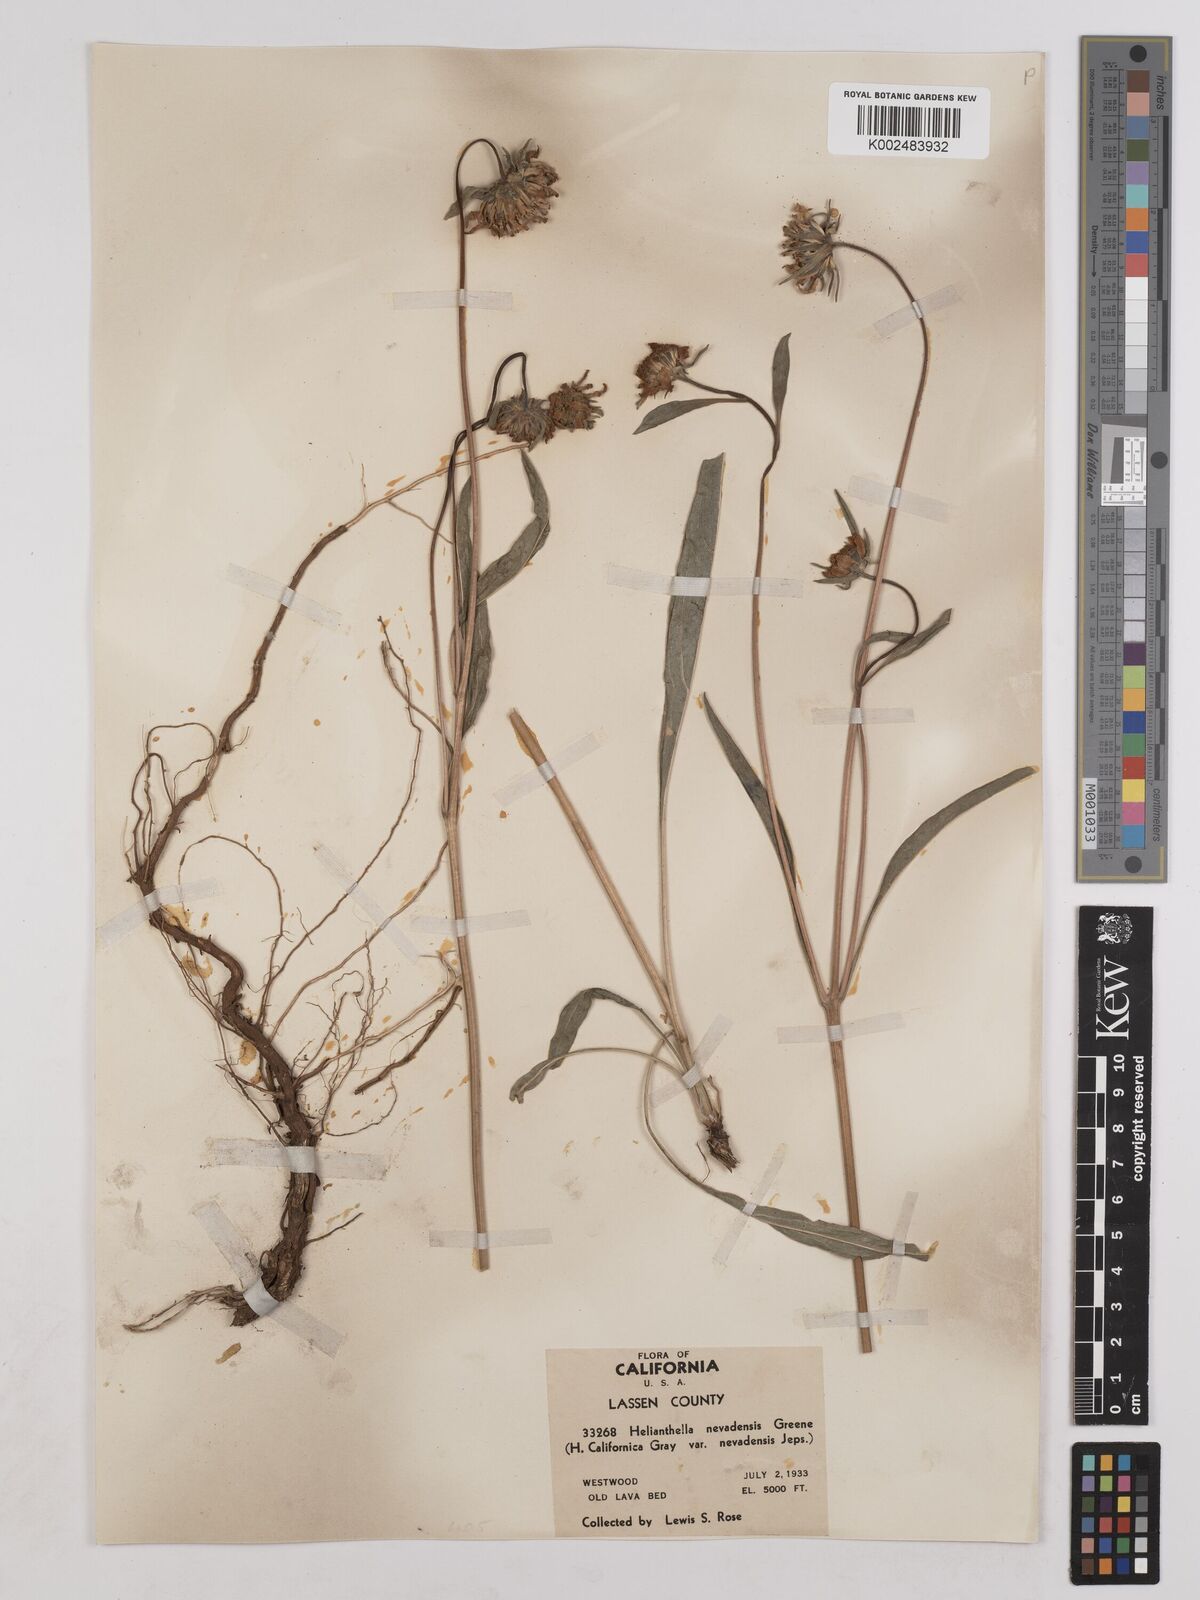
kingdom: Plantae
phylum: Tracheophyta
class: Magnoliopsida
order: Asterales
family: Asteraceae
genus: Helianthella
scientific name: Helianthella californica
